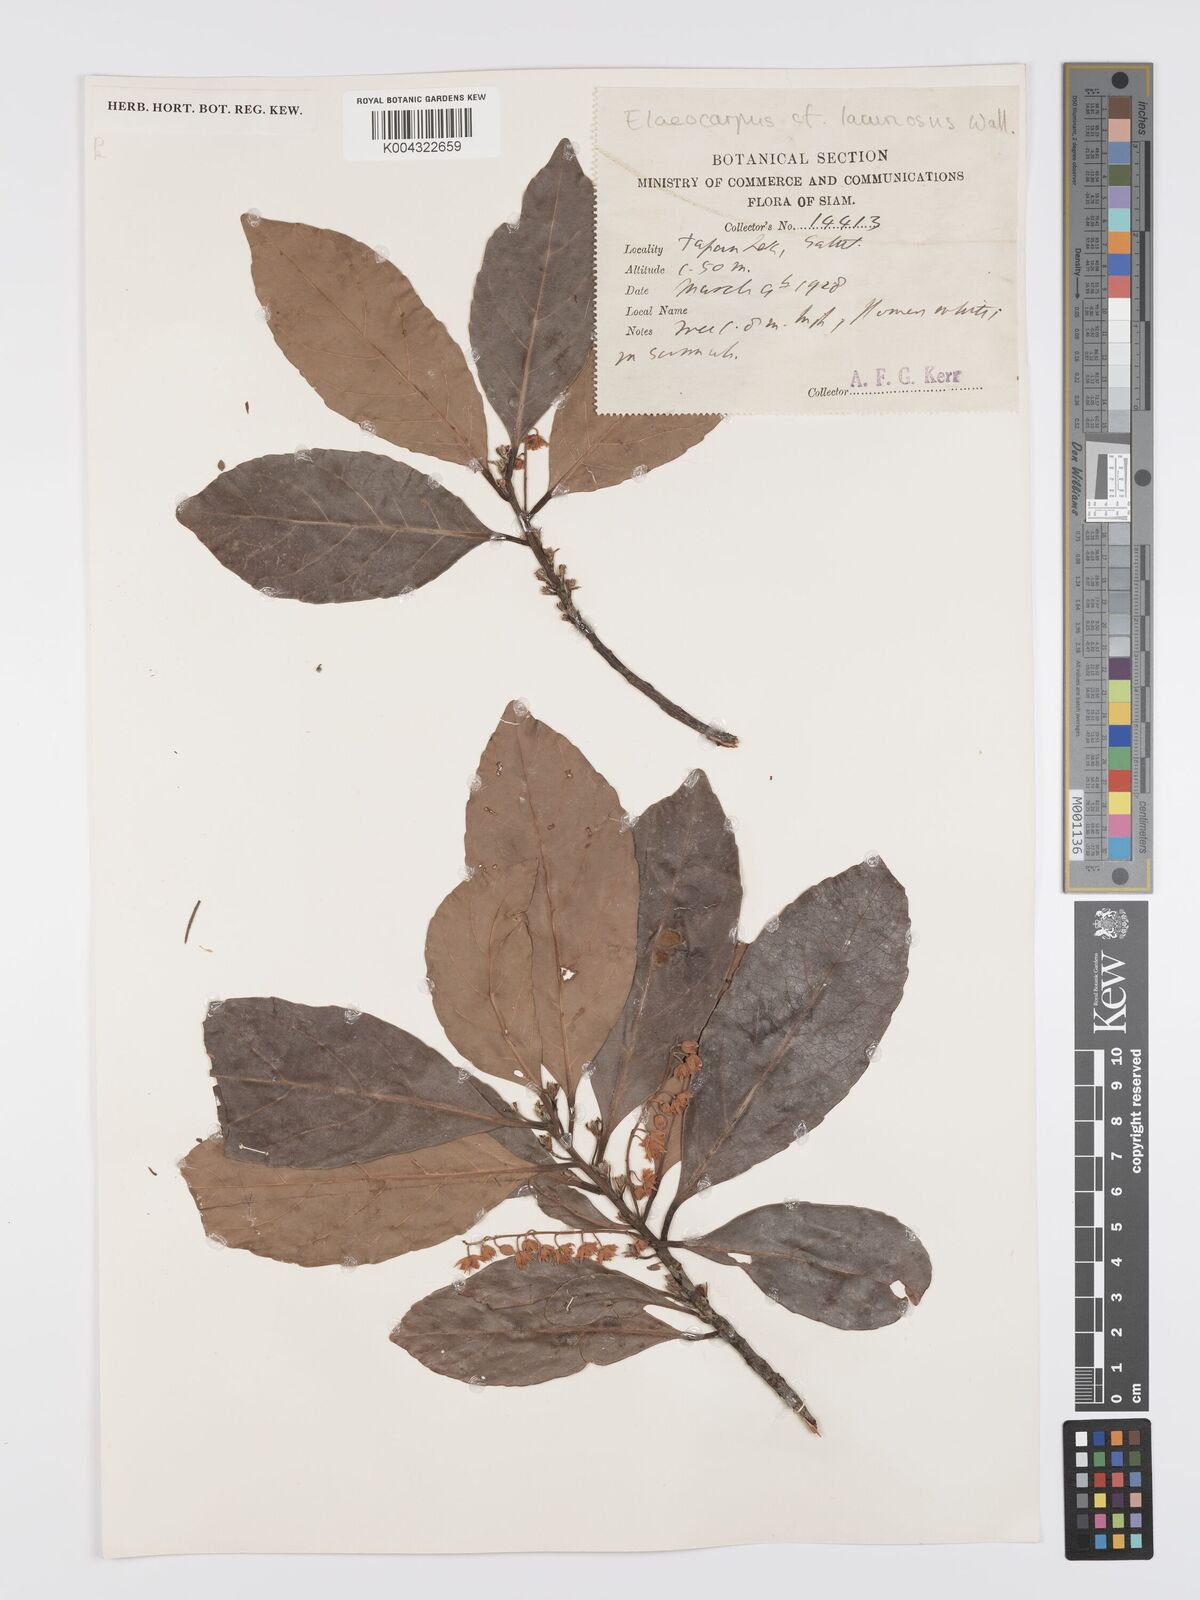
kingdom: Plantae
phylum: Tracheophyta
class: Magnoliopsida
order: Oxalidales
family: Elaeocarpaceae
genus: Elaeocarpus
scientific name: Elaeocarpus lanceifolius
